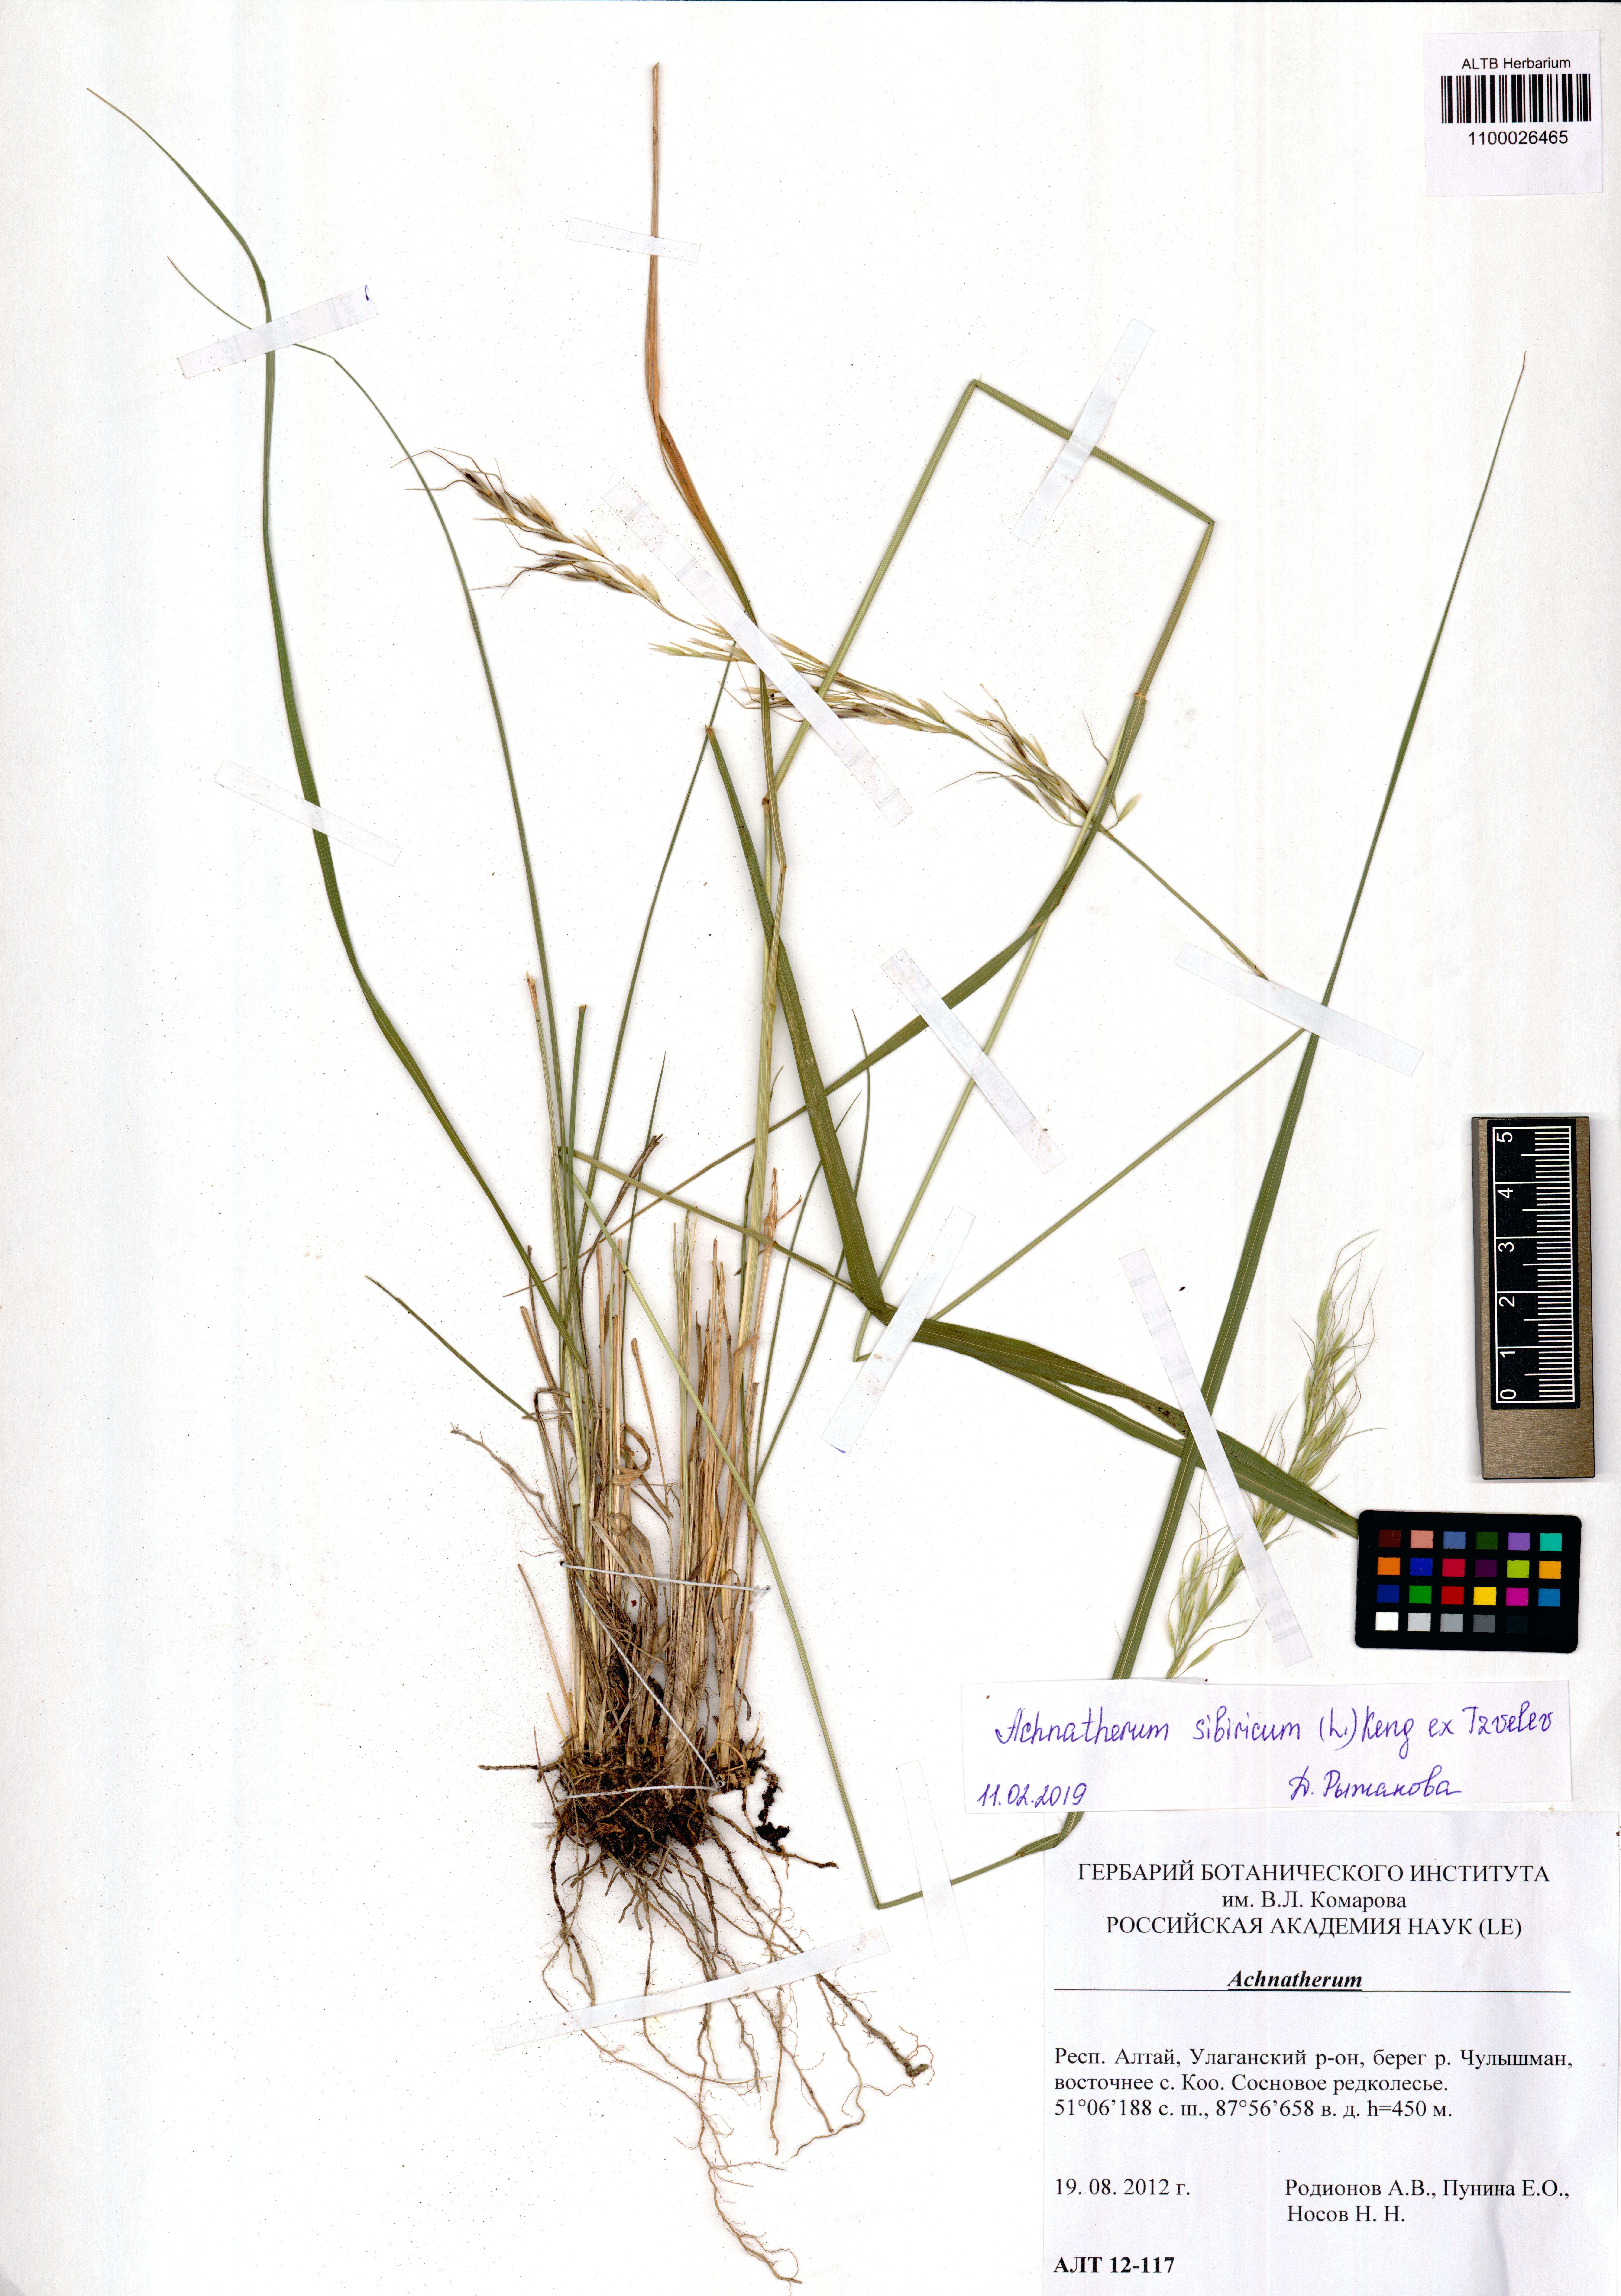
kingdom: Plantae
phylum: Tracheophyta
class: Liliopsida
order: Poales
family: Poaceae
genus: Achnatherum
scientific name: Achnatherum sibiricum
